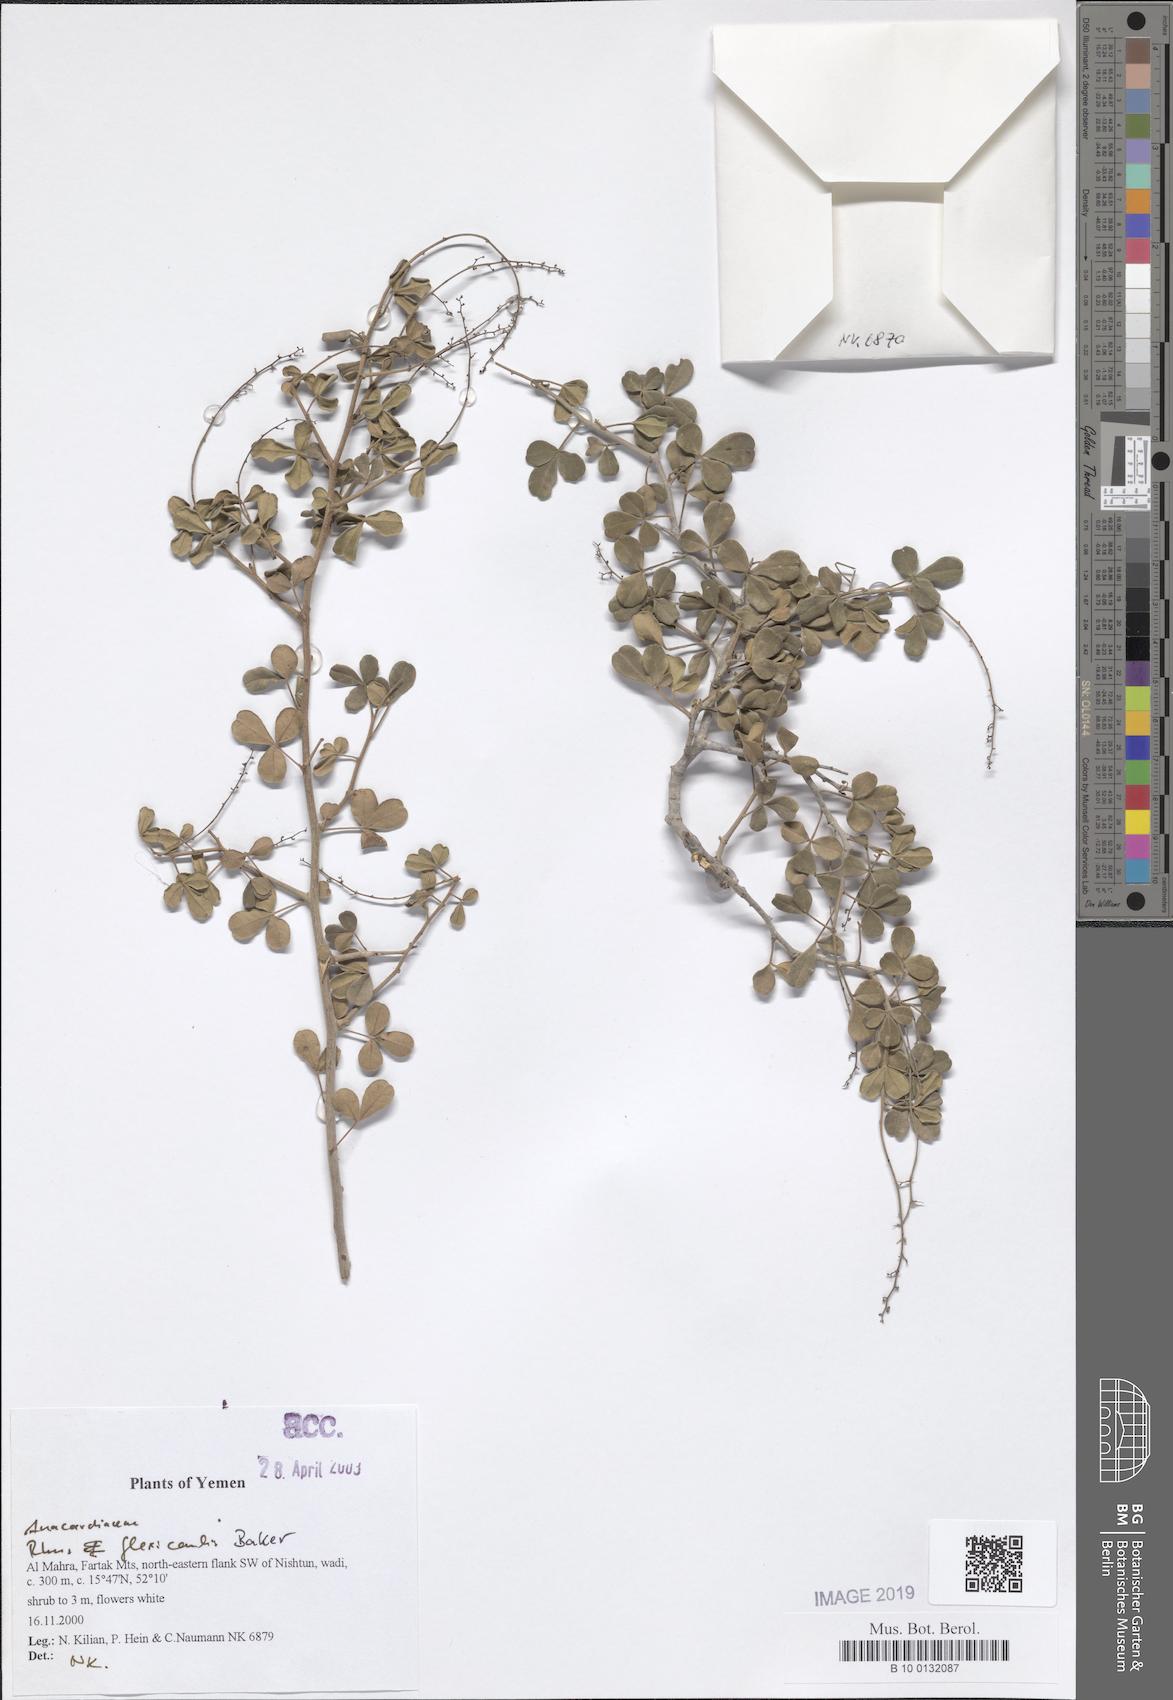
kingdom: Plantae
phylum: Tracheophyta
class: Magnoliopsida
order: Sapindales
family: Anacardiaceae
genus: Searsia
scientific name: Searsia flexicaulis
